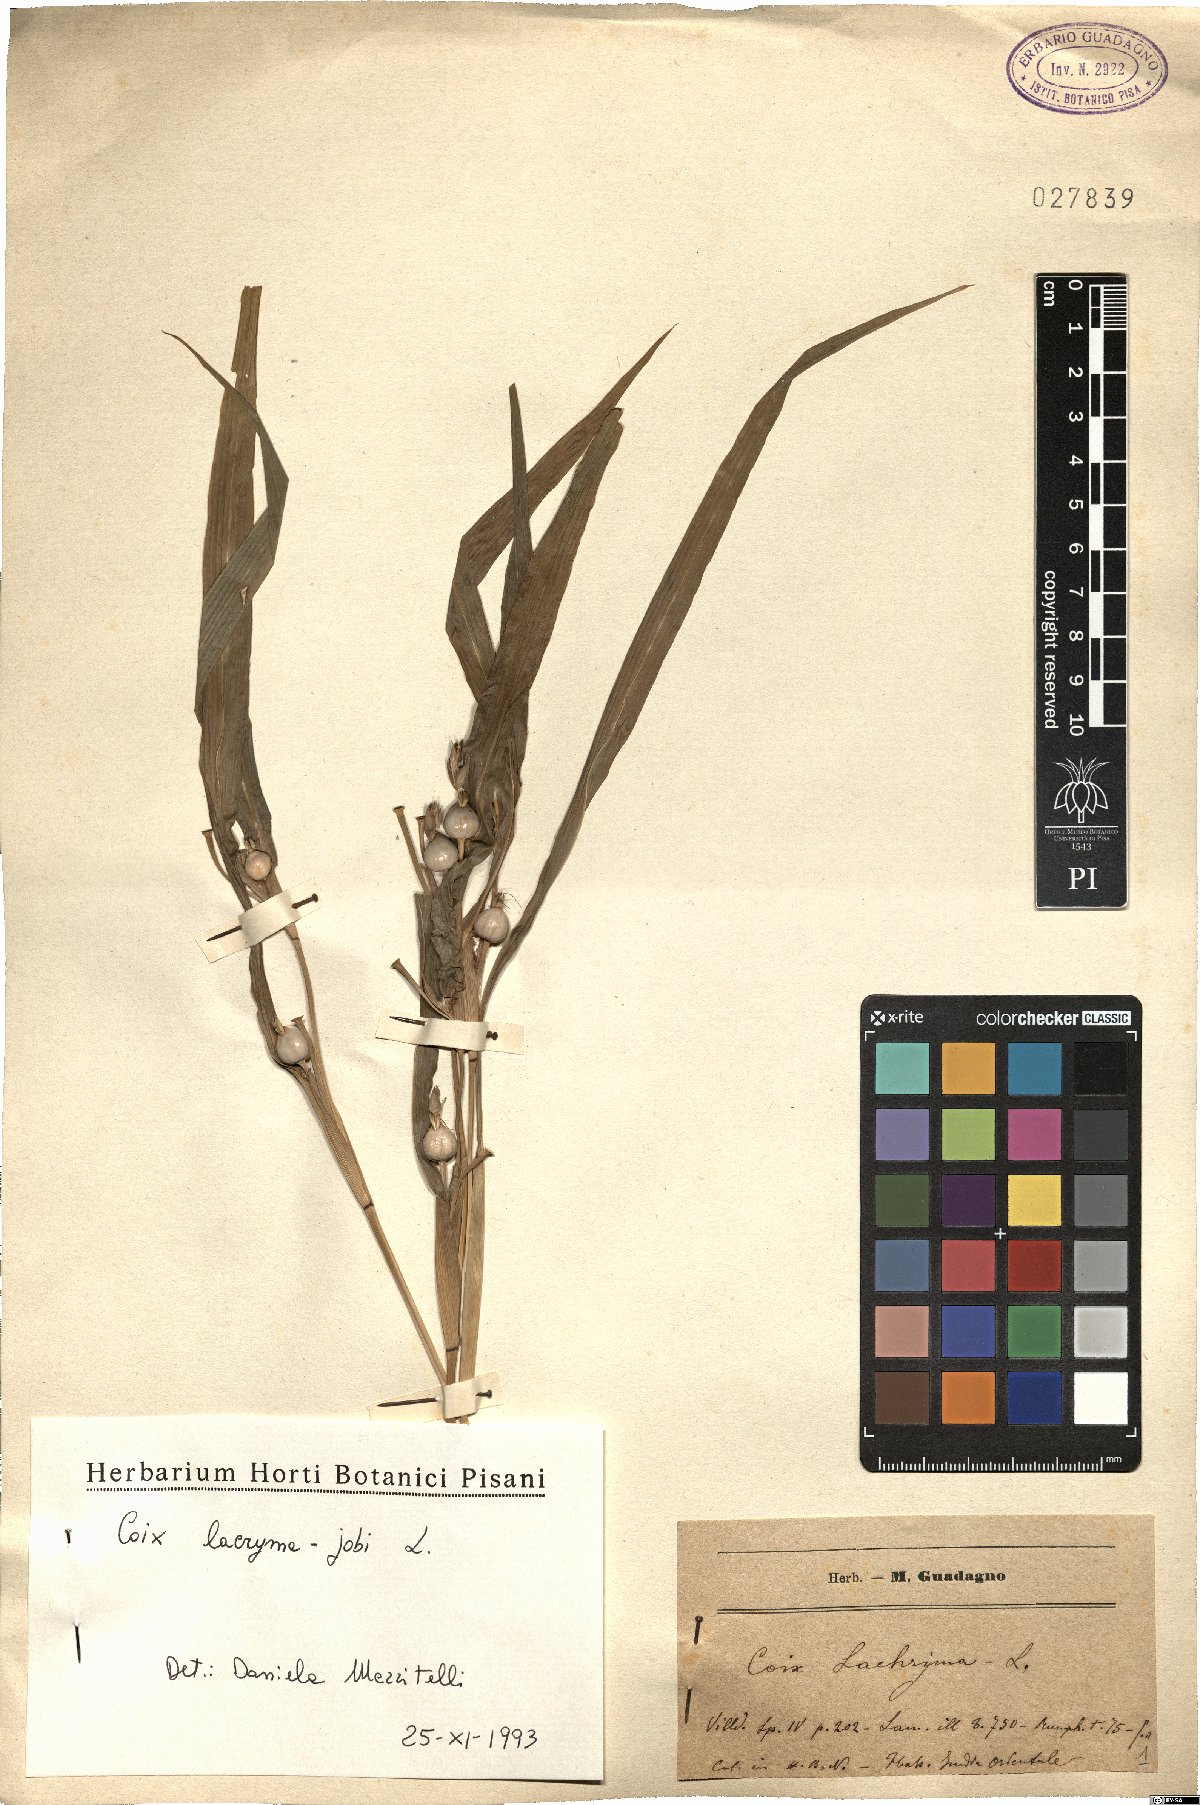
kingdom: Plantae
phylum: Tracheophyta
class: Liliopsida
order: Poales
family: Poaceae
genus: Coix
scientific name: Coix lacryma-jobi
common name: Job's tears
